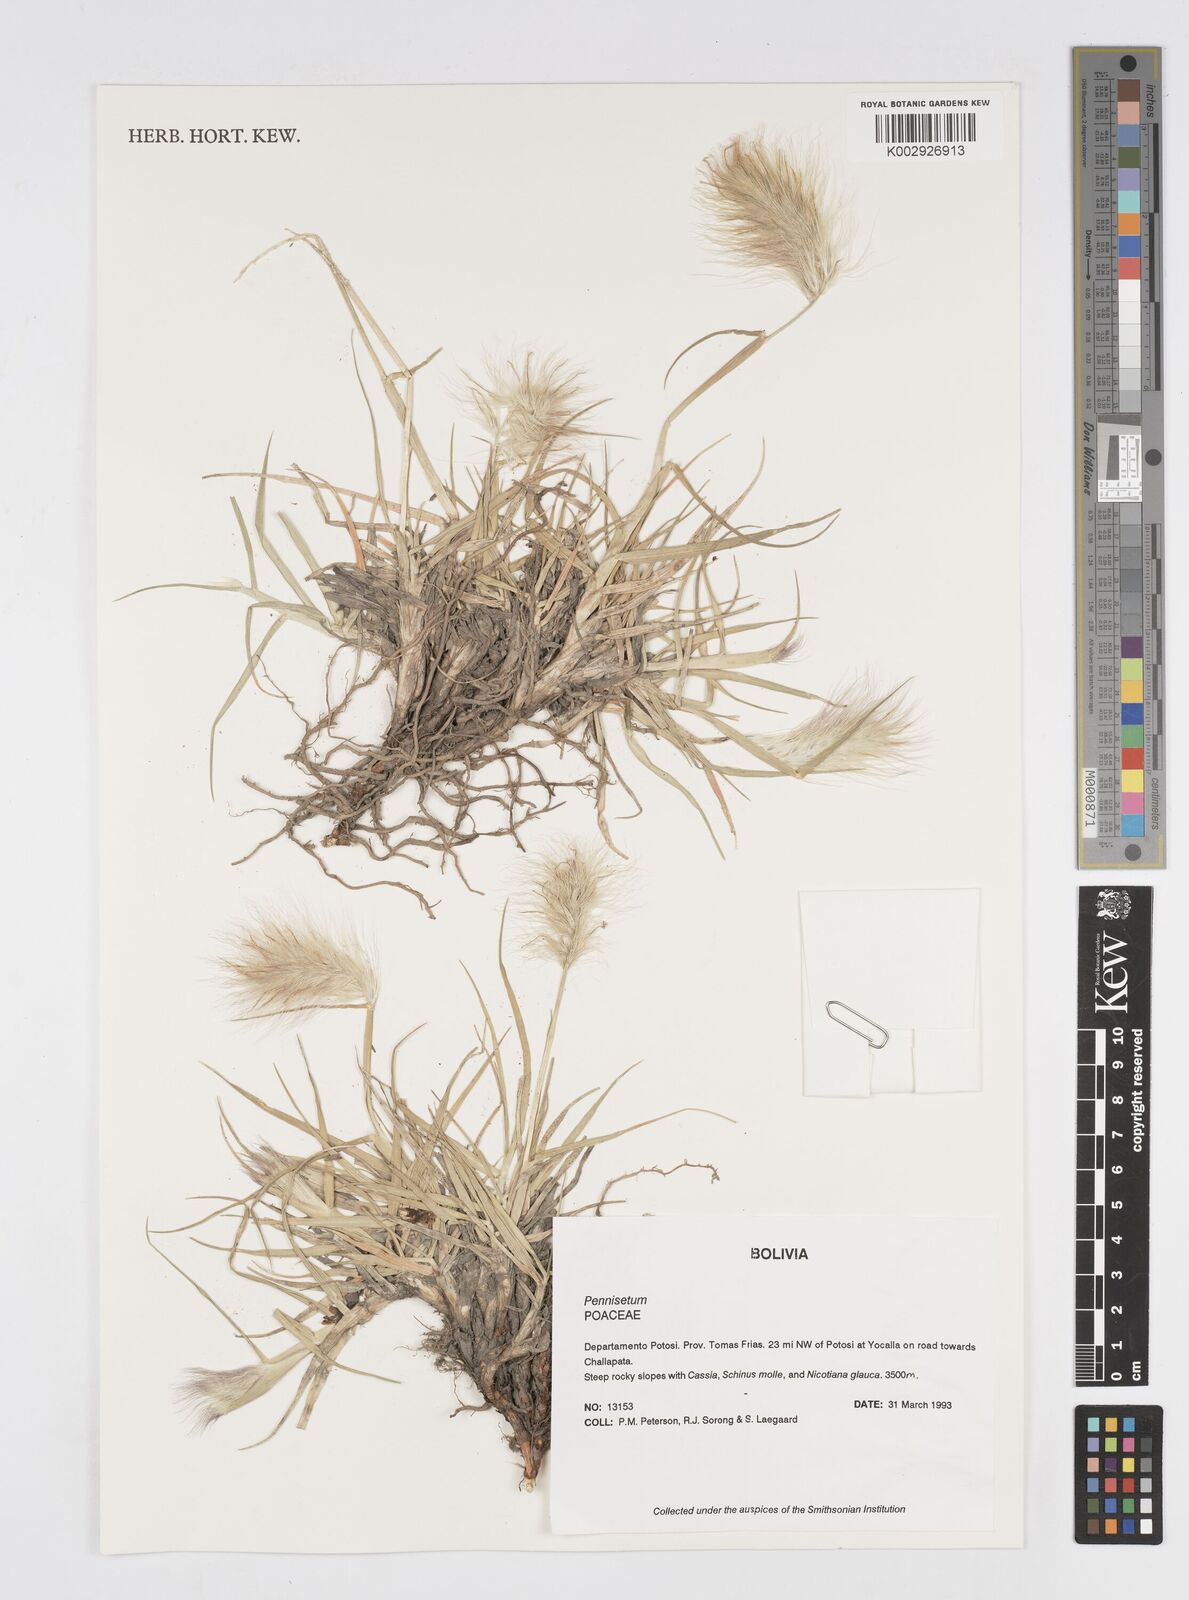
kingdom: Plantae
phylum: Tracheophyta
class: Liliopsida
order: Poales
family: Poaceae
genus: Cenchrus
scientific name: Cenchrus longisetus
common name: Feathertop
